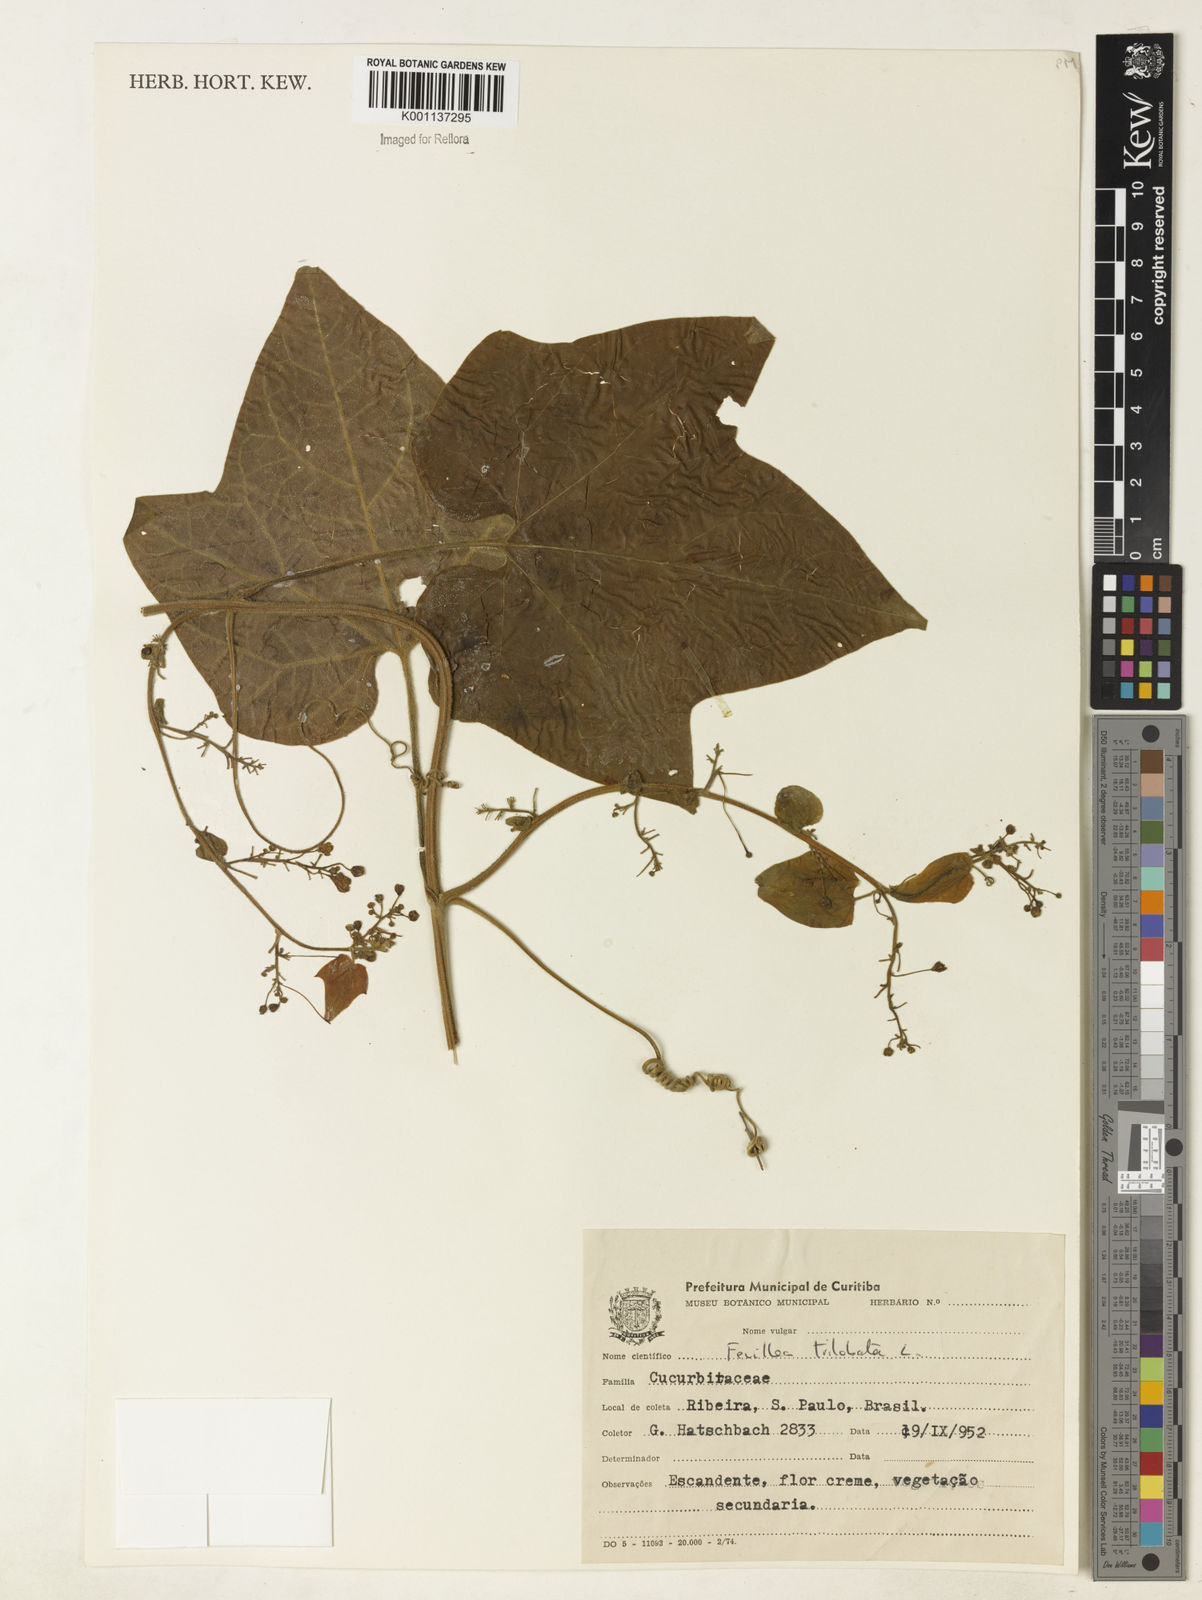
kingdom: Plantae
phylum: Tracheophyta
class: Magnoliopsida
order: Cucurbitales
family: Cucurbitaceae
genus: Fevillea
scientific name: Fevillea trilobata
